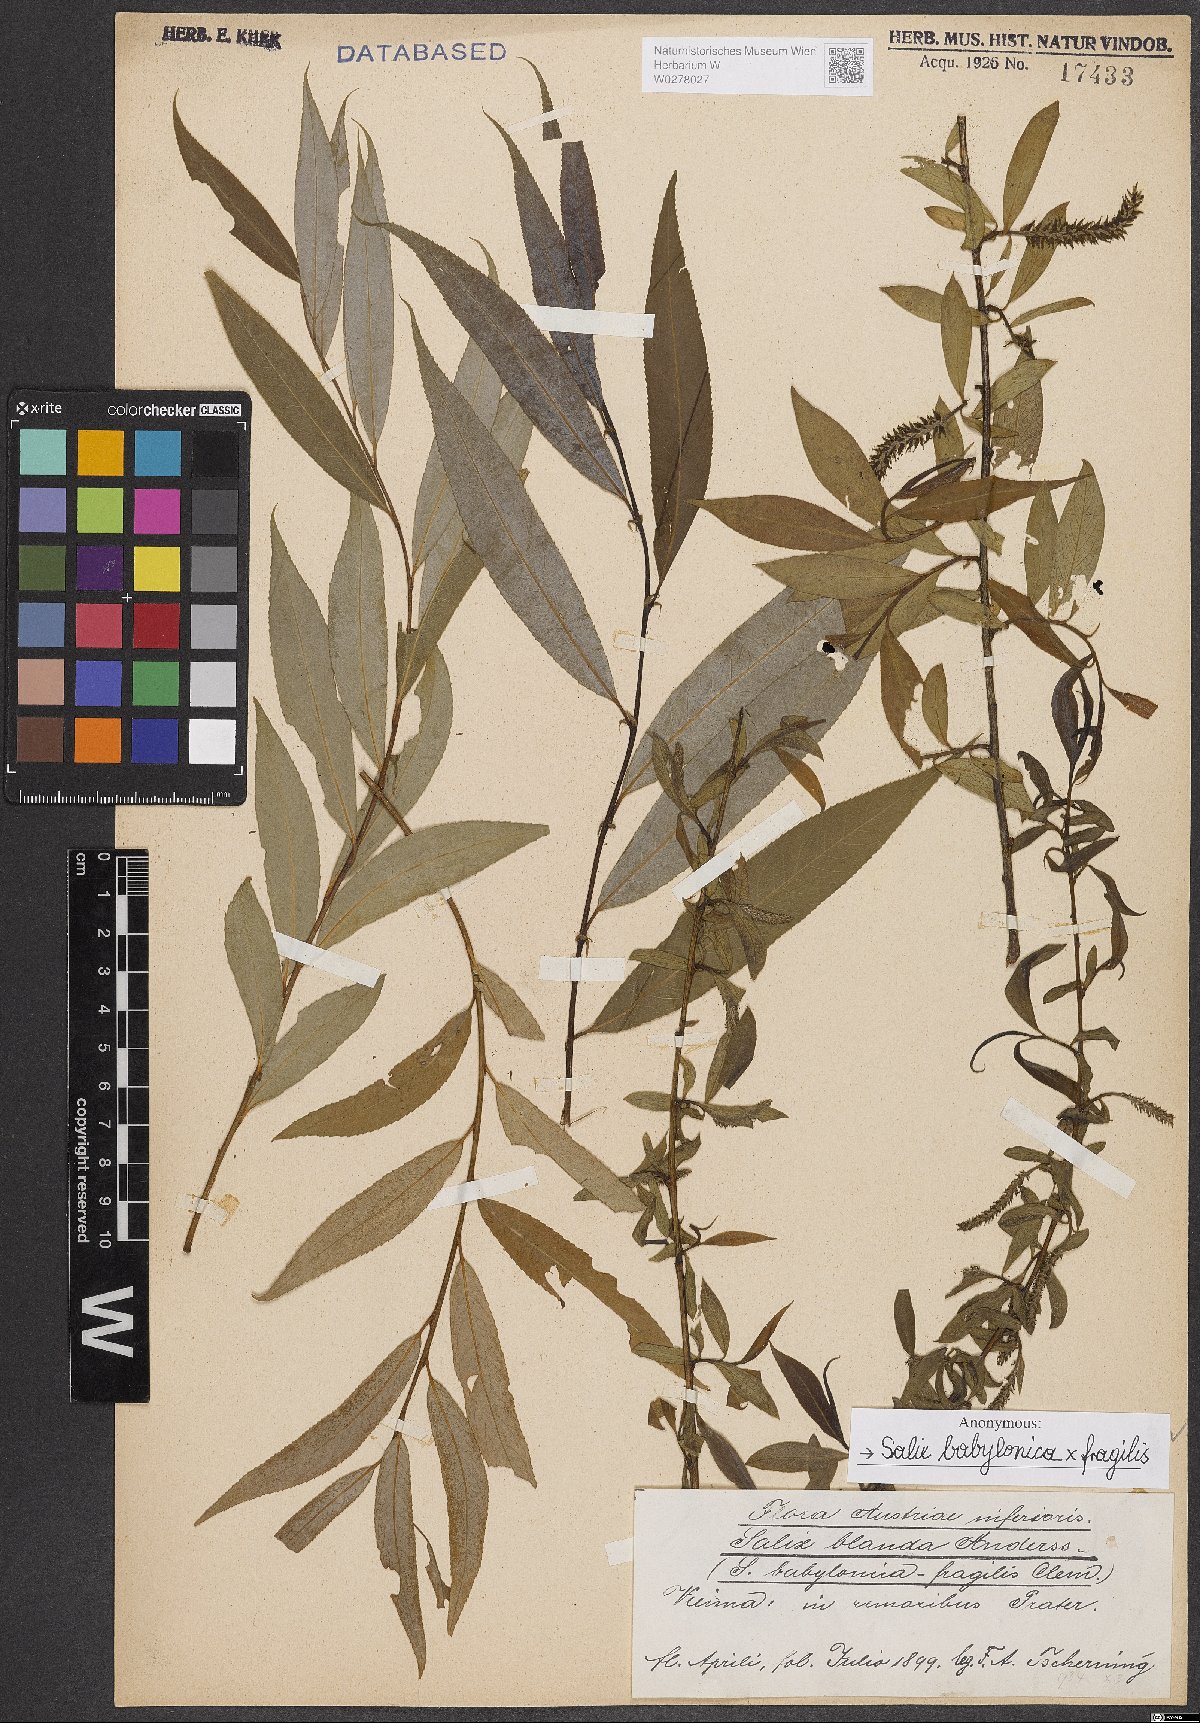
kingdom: Plantae
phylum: Tracheophyta
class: Magnoliopsida
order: Malpighiales
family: Salicaceae
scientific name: Salicaceae
